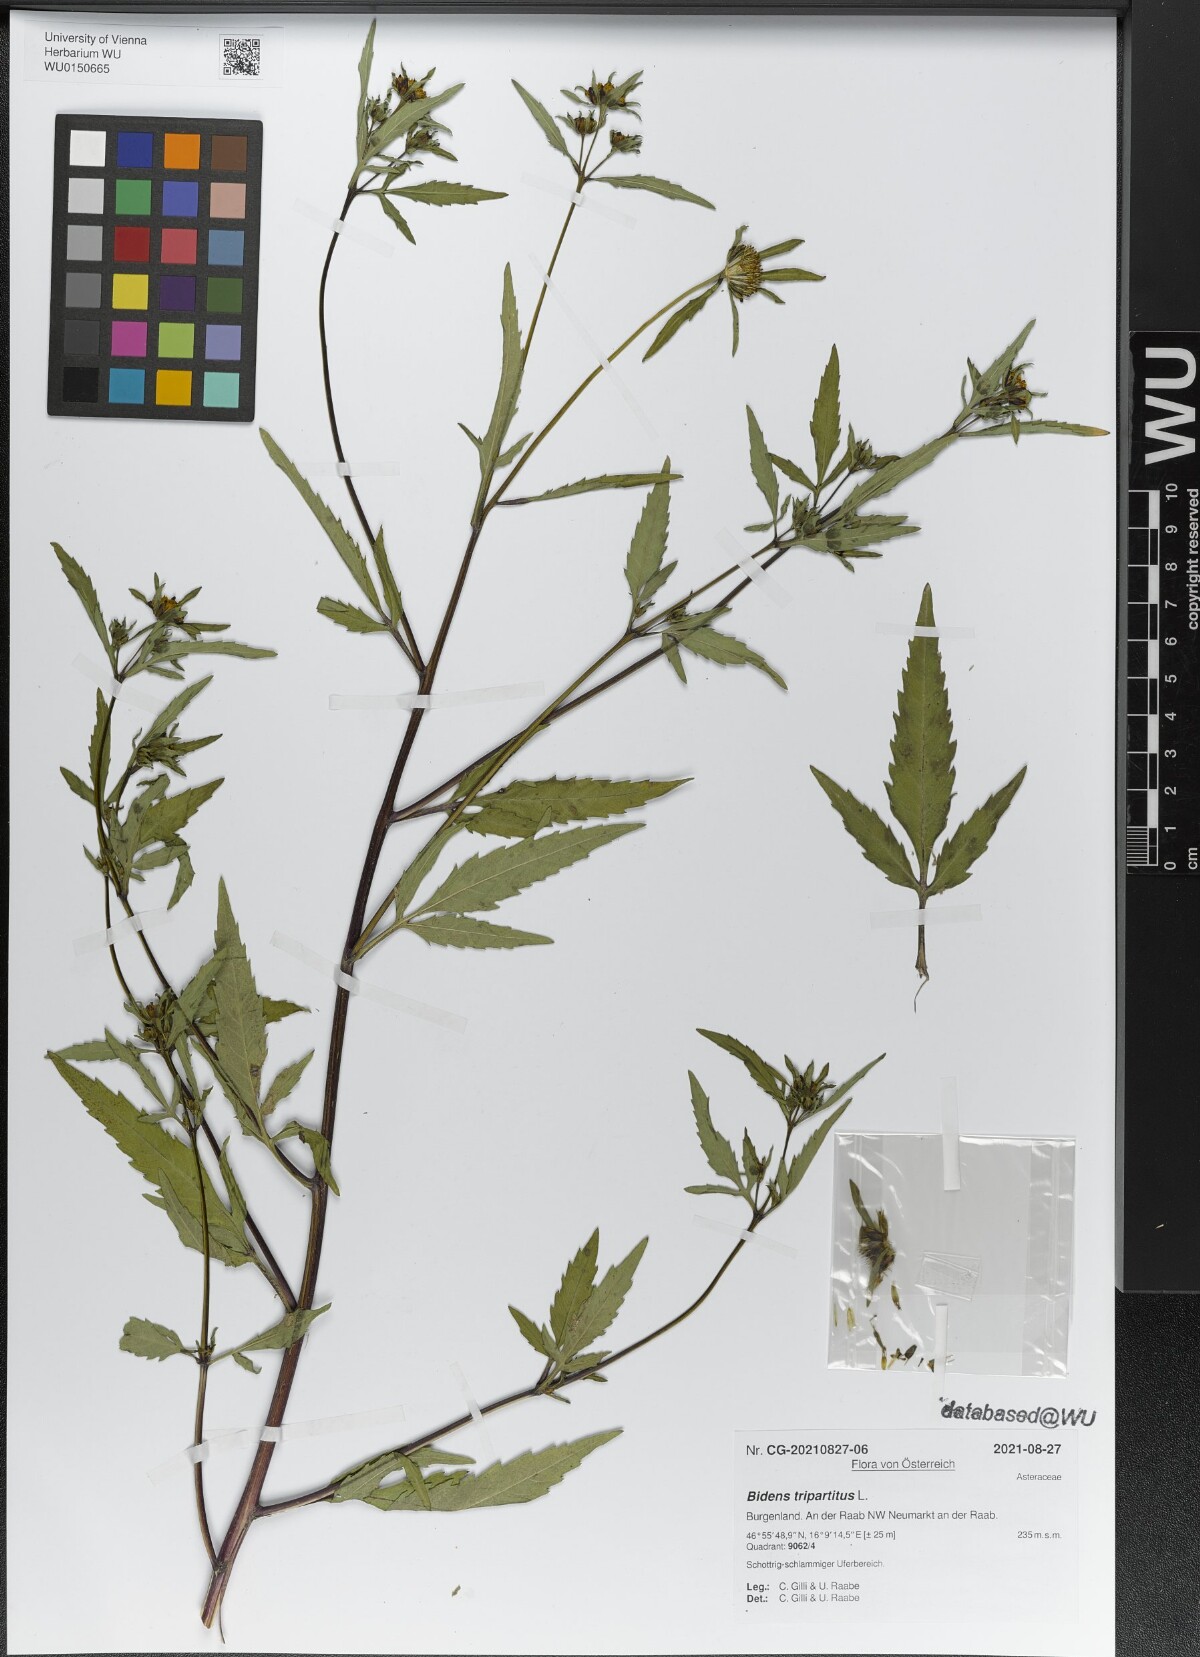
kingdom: Plantae
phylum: Tracheophyta
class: Magnoliopsida
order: Asterales
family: Asteraceae
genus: Bidens
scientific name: Bidens tripartita
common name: Trifid bur-marigold
